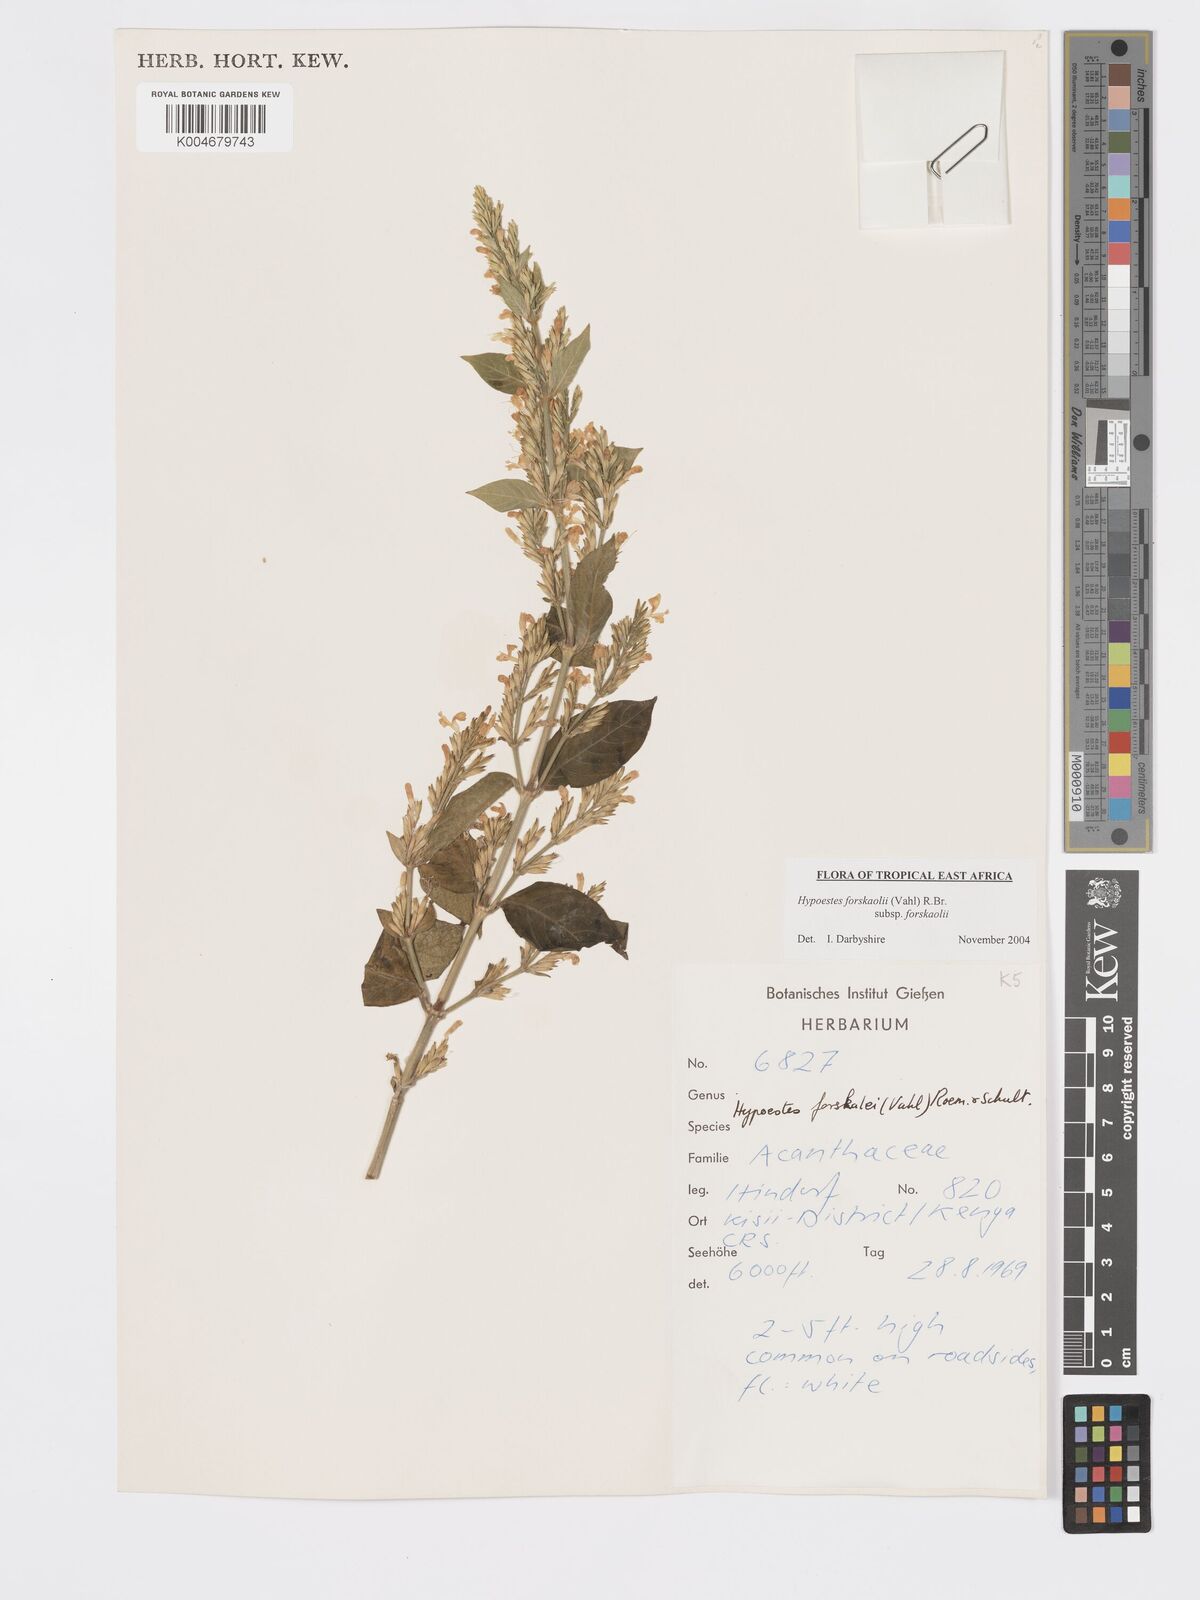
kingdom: Plantae
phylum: Tracheophyta
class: Magnoliopsida
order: Lamiales
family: Acanthaceae
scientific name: Acanthaceae
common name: Acanthaceae
